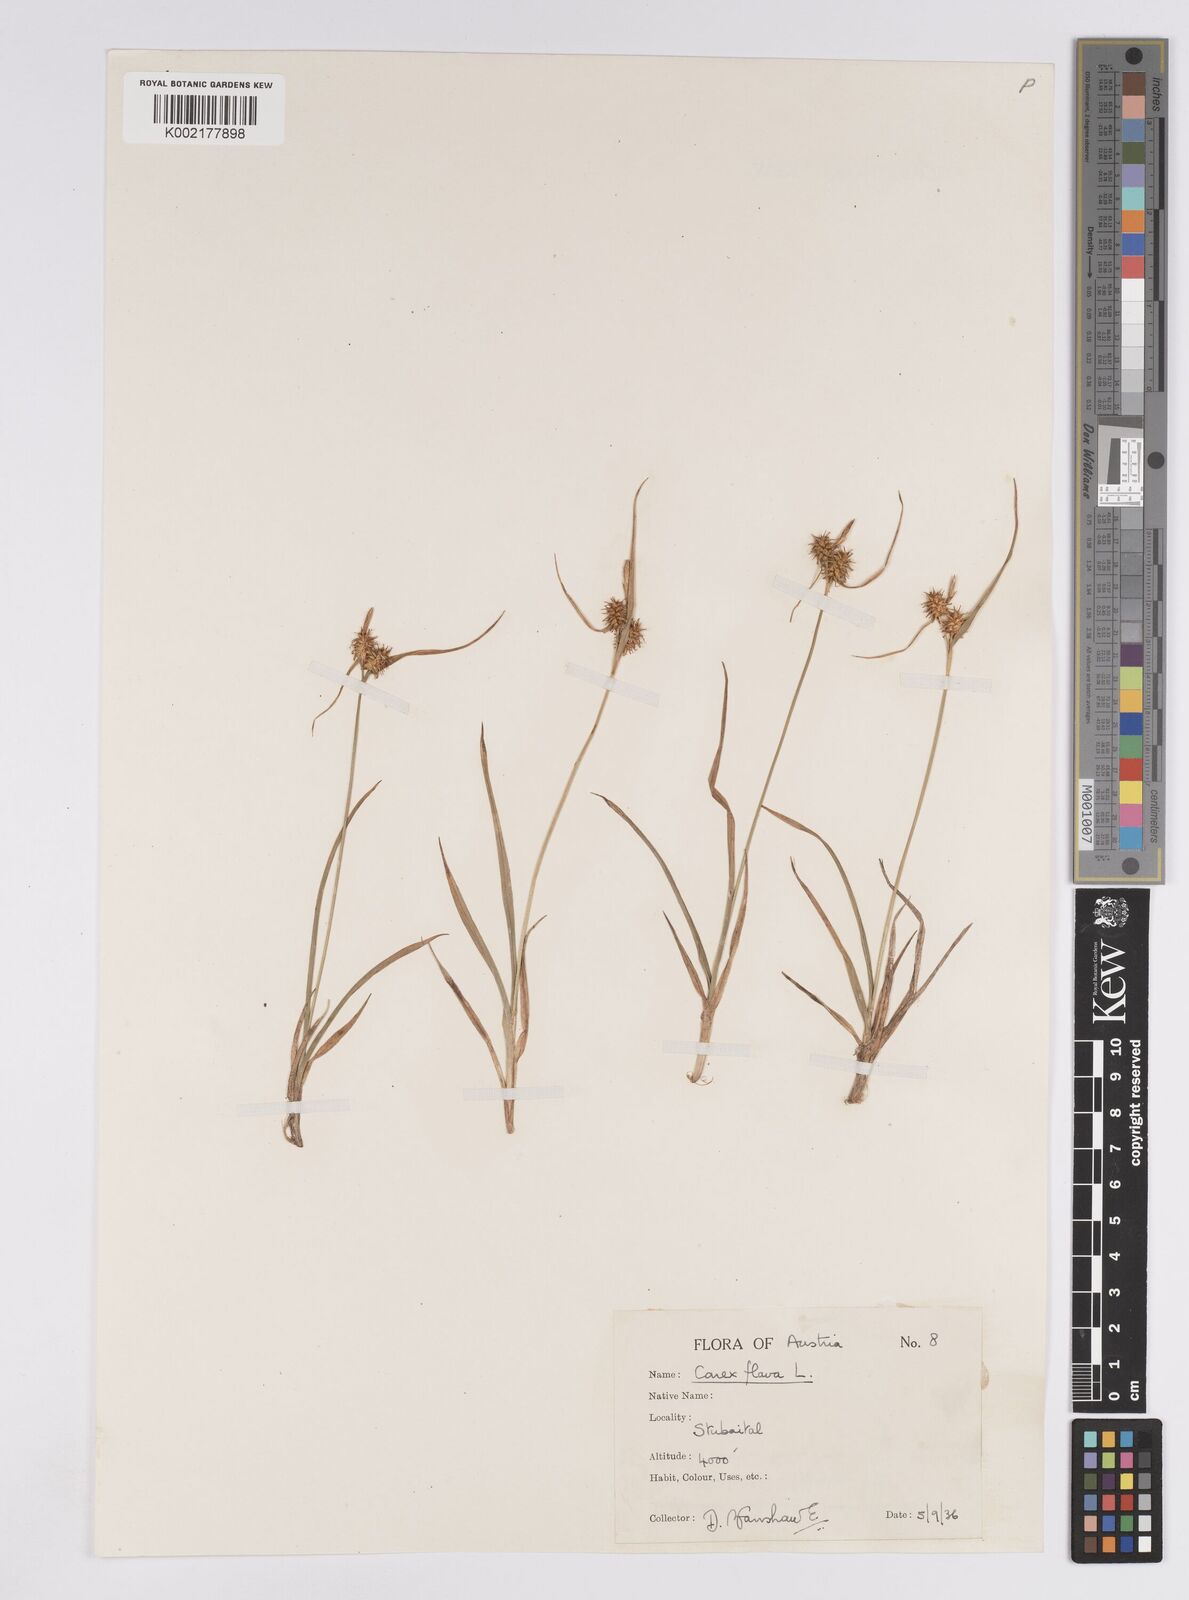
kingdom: Plantae
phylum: Tracheophyta
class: Liliopsida
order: Poales
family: Cyperaceae
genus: Carex
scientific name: Carex flava
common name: Large yellow-sedge
